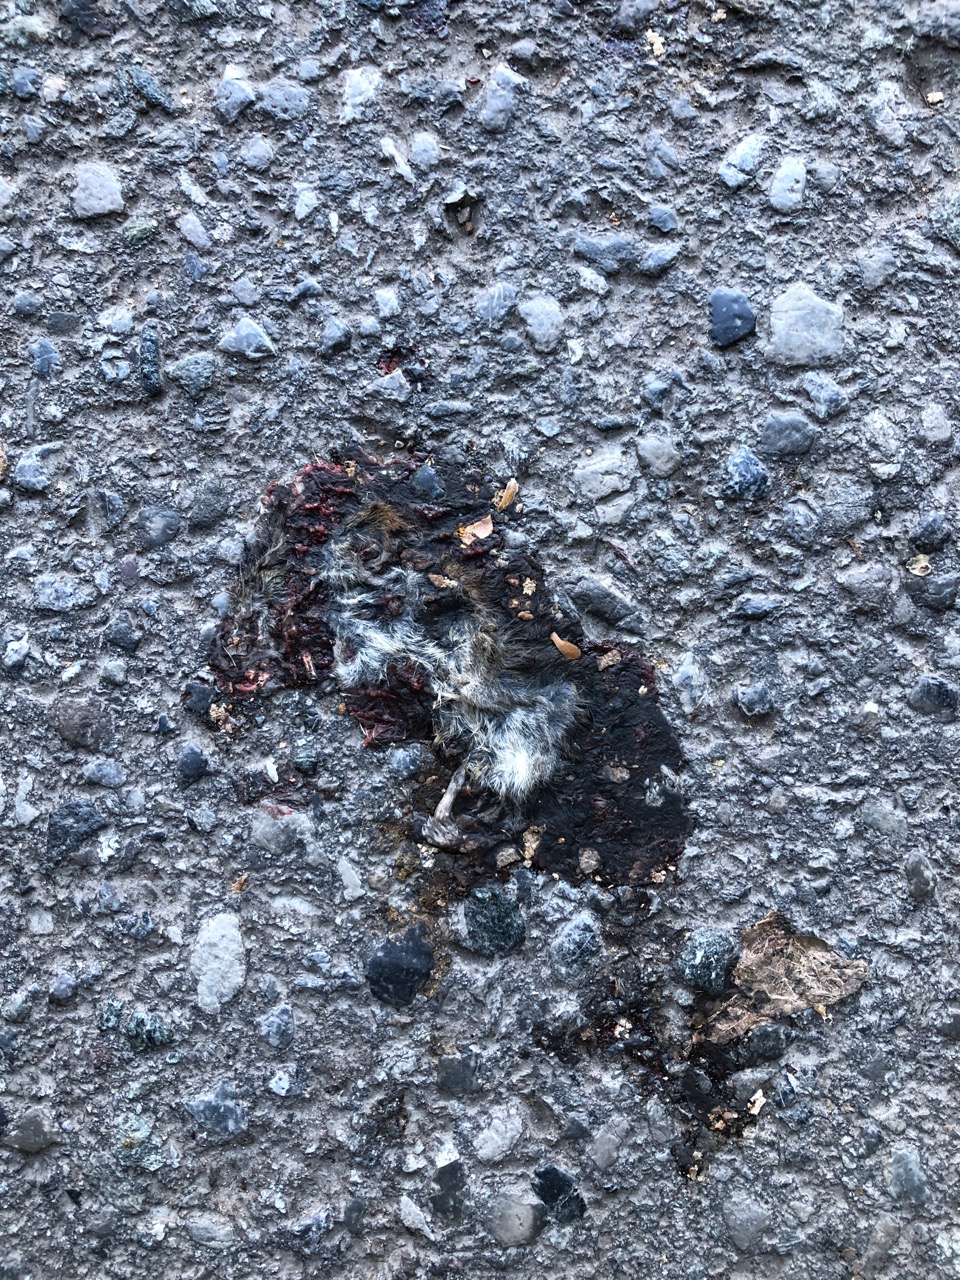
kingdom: Animalia
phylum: Chordata
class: Mammalia
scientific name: Mammalia
